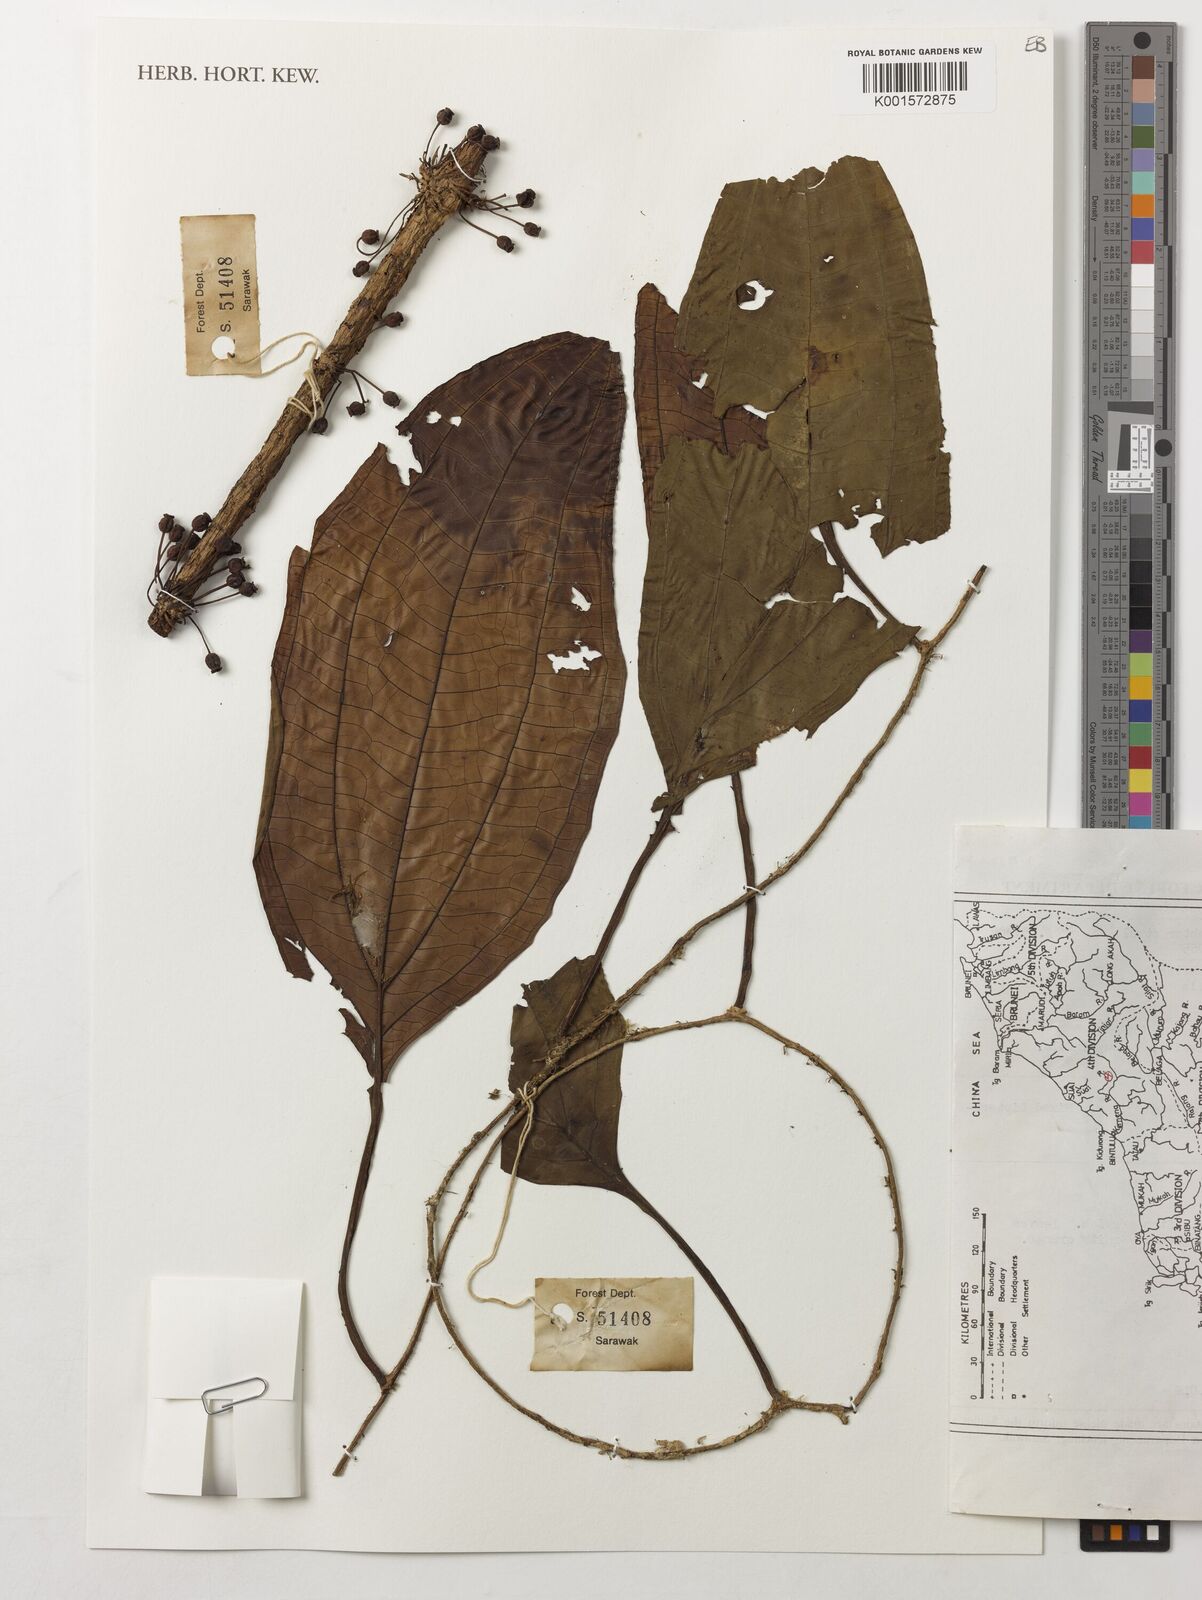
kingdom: Plantae
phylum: Tracheophyta
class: Magnoliopsida
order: Myrtales
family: Melastomataceae
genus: Medinilla
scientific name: Medinilla
